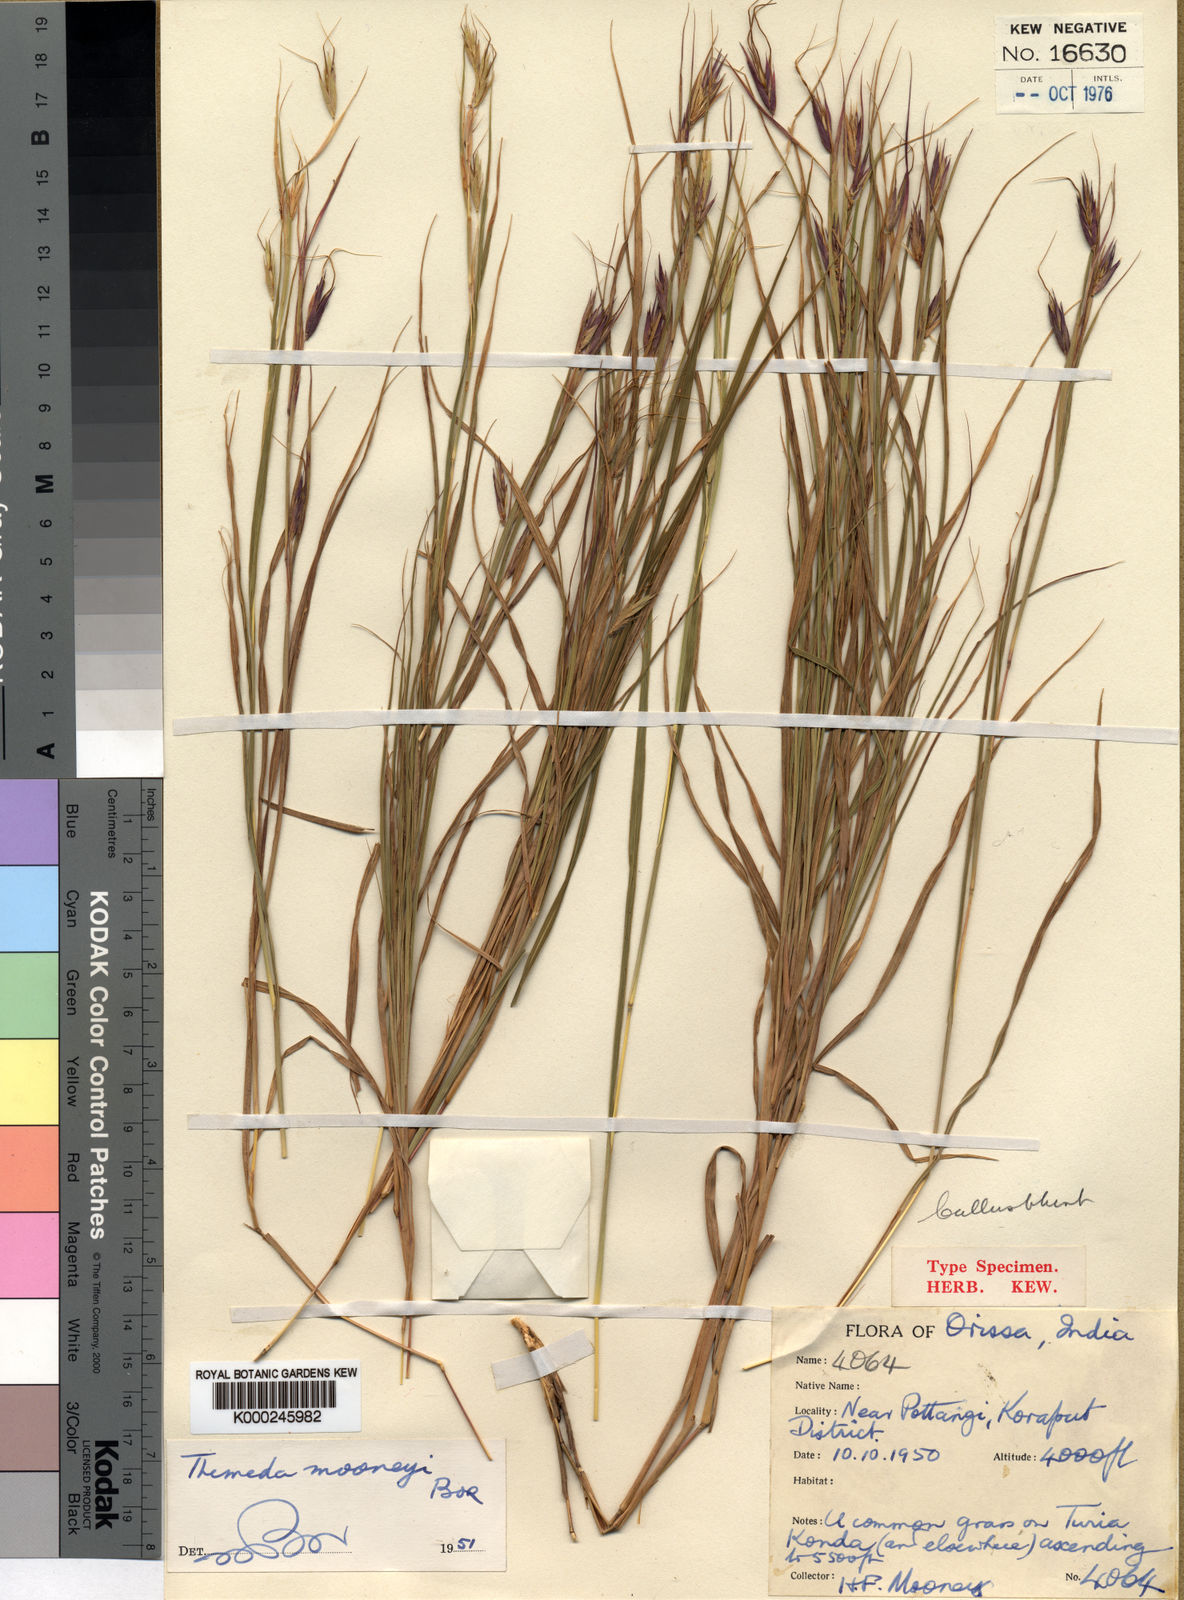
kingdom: Plantae
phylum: Tracheophyta
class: Liliopsida
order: Poales
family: Poaceae
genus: Themeda
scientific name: Themeda mooneyi
